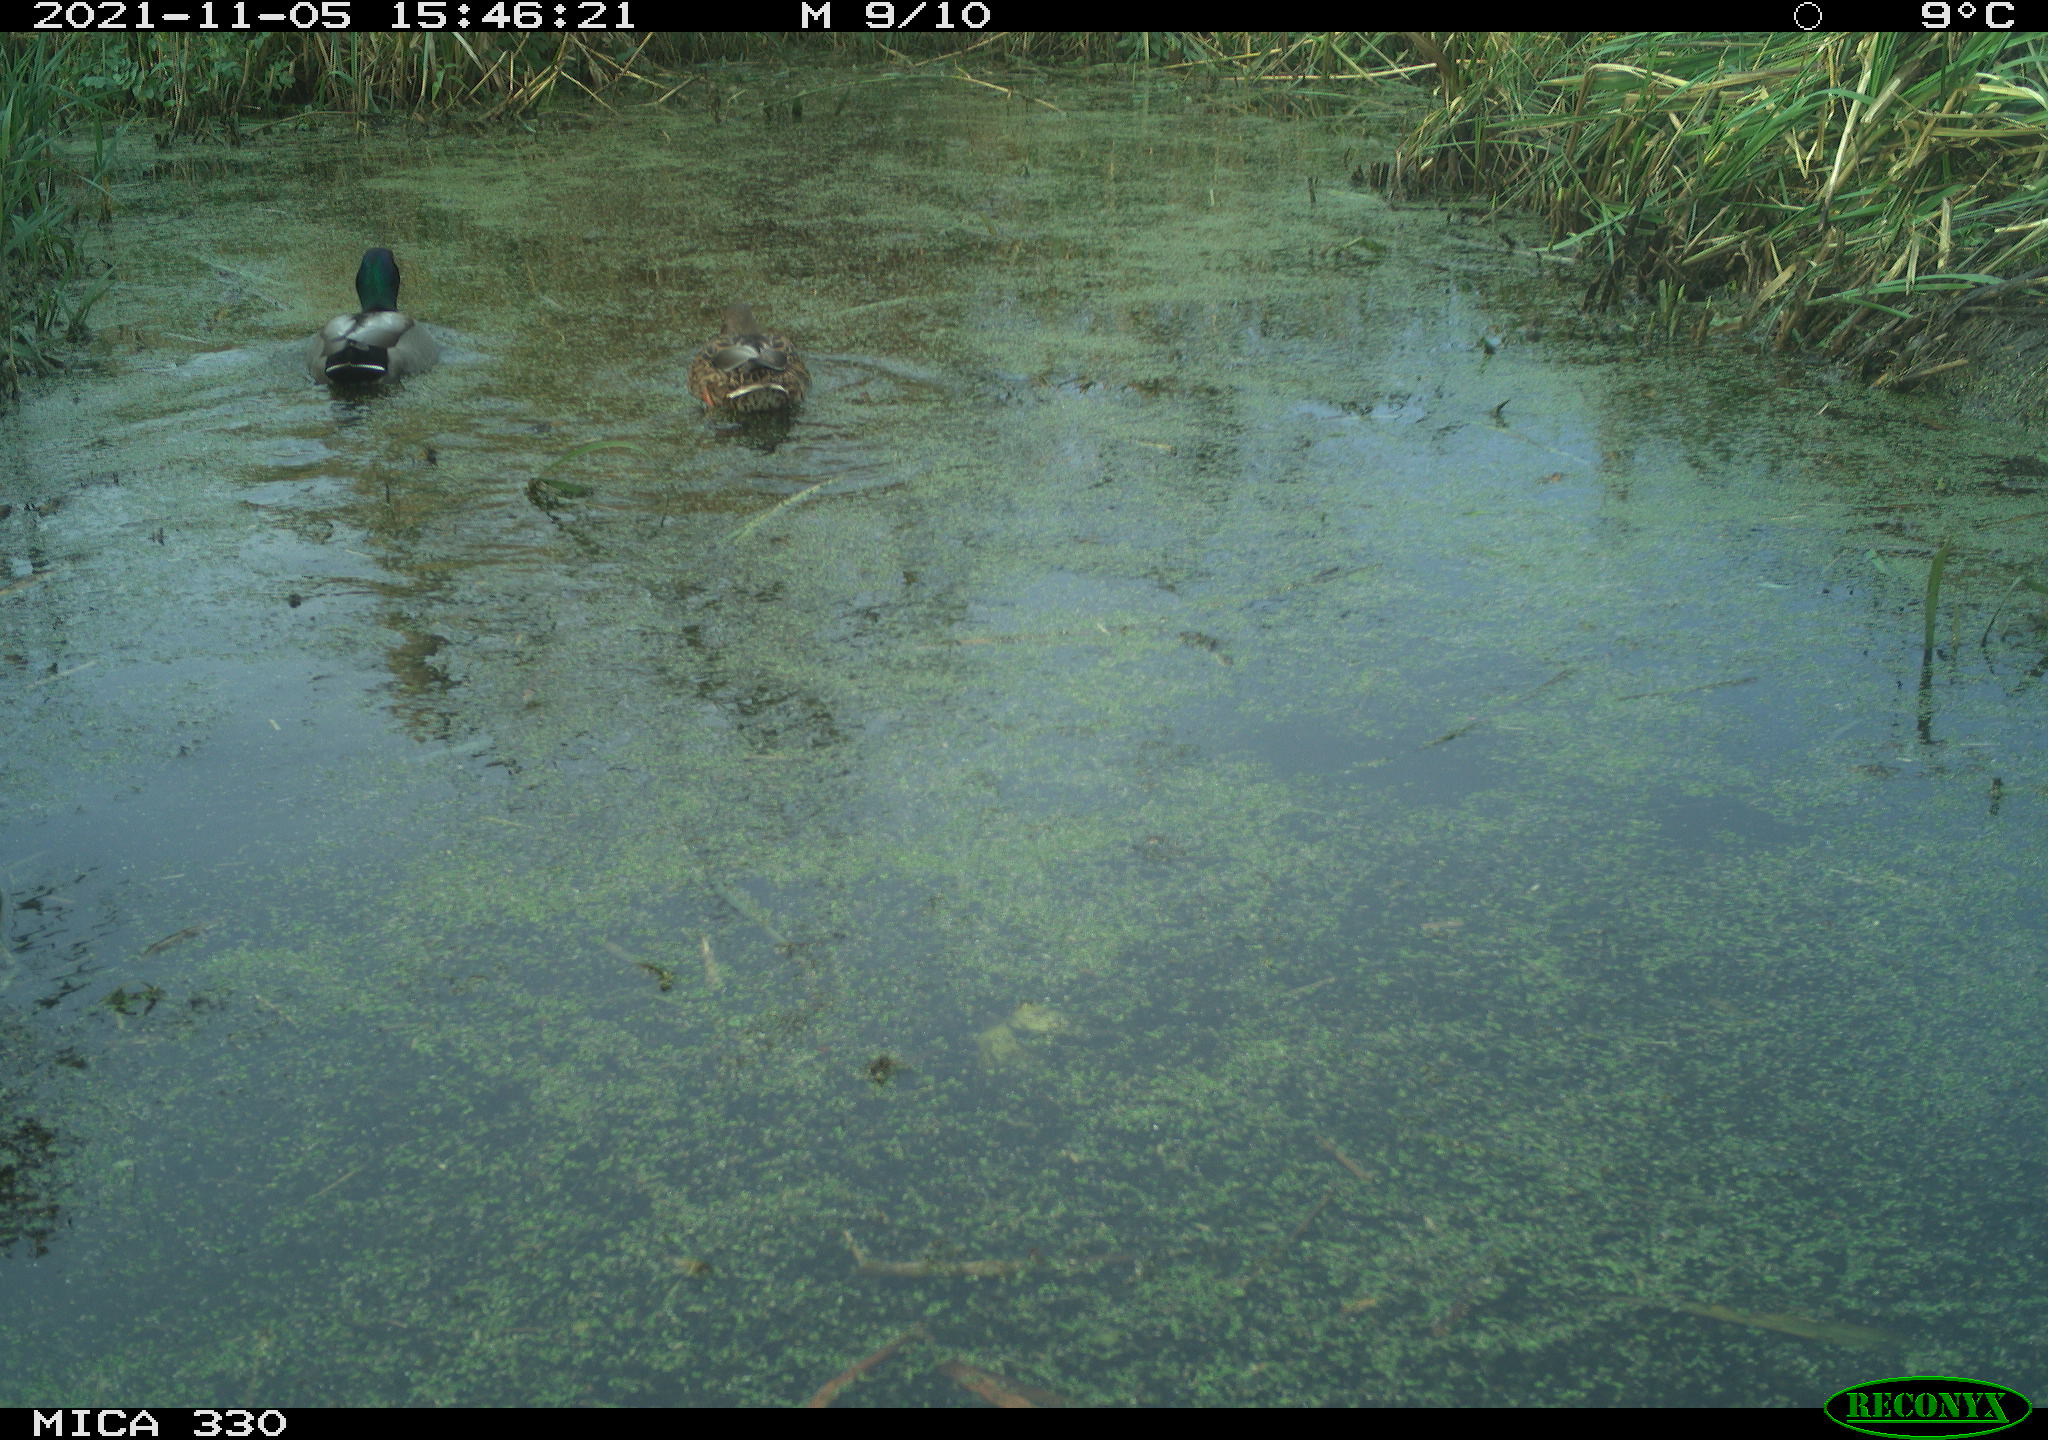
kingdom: Animalia
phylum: Chordata
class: Aves
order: Anseriformes
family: Anatidae
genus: Anas
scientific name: Anas platyrhynchos
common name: Mallard
